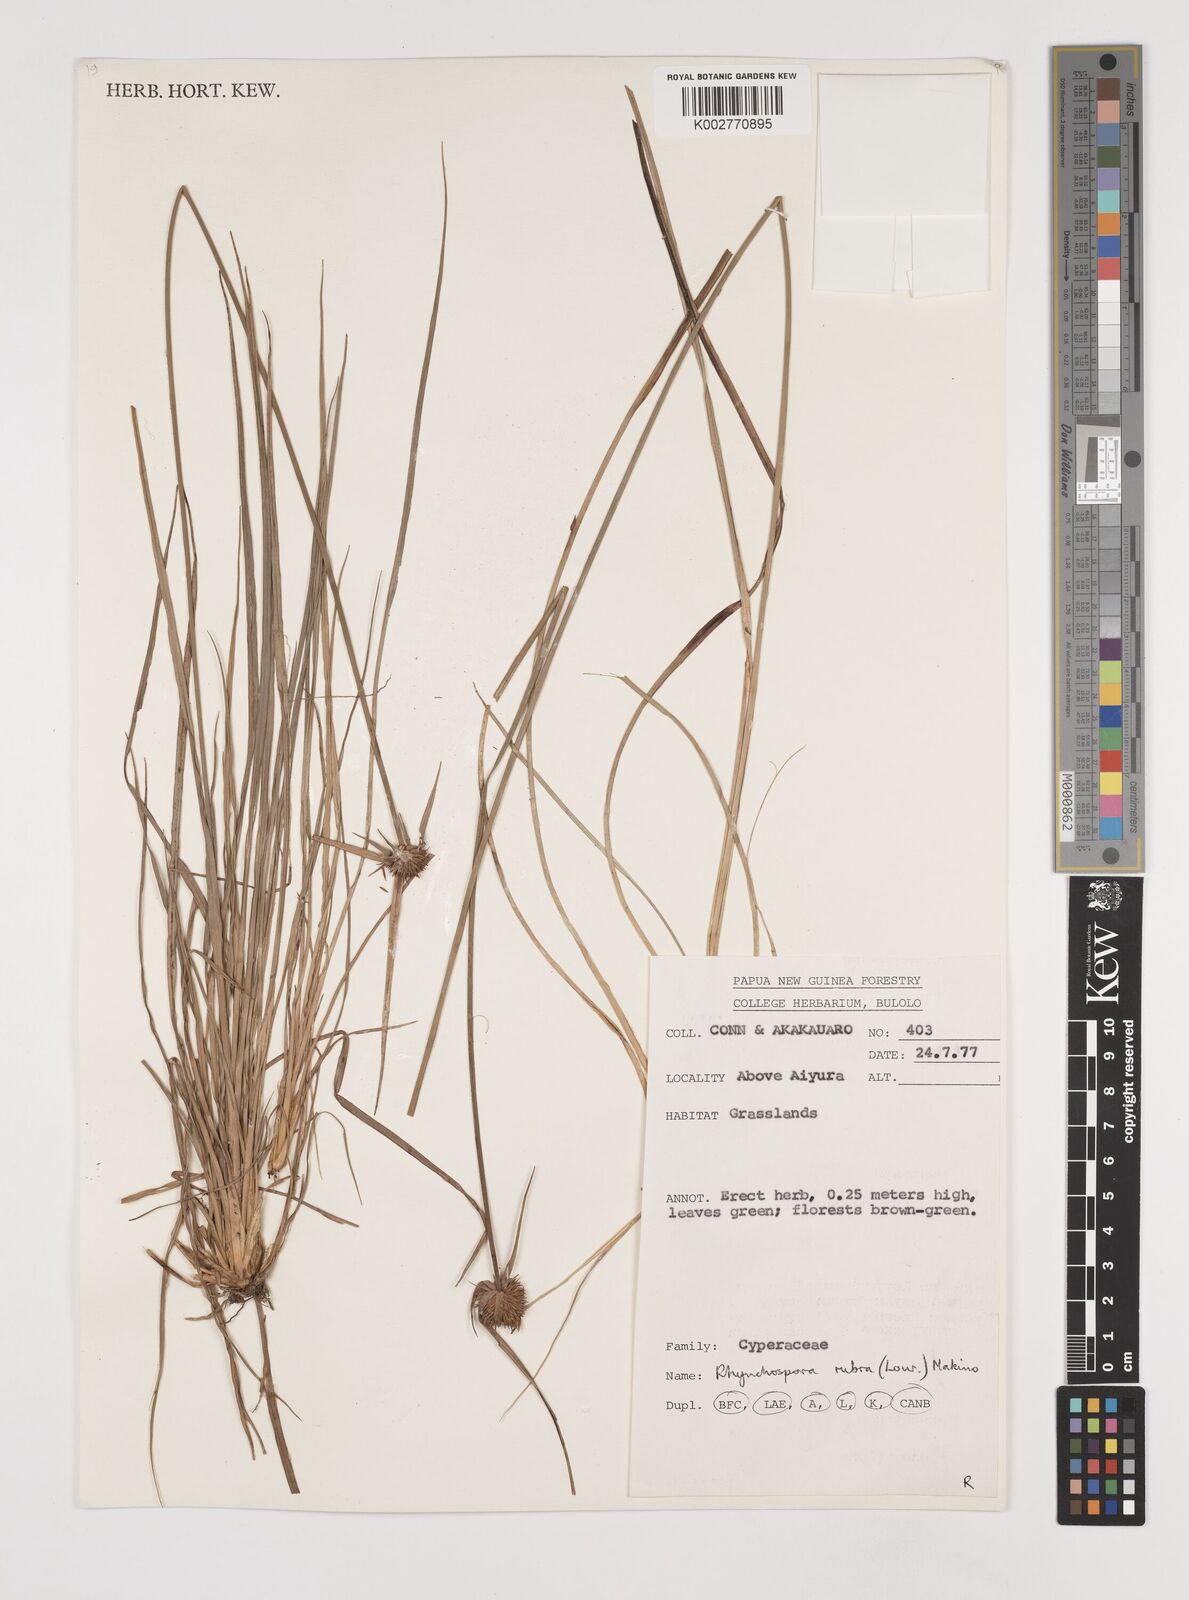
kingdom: Plantae
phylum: Tracheophyta
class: Liliopsida
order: Poales
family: Cyperaceae
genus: Rhynchospora
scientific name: Rhynchospora rubra
